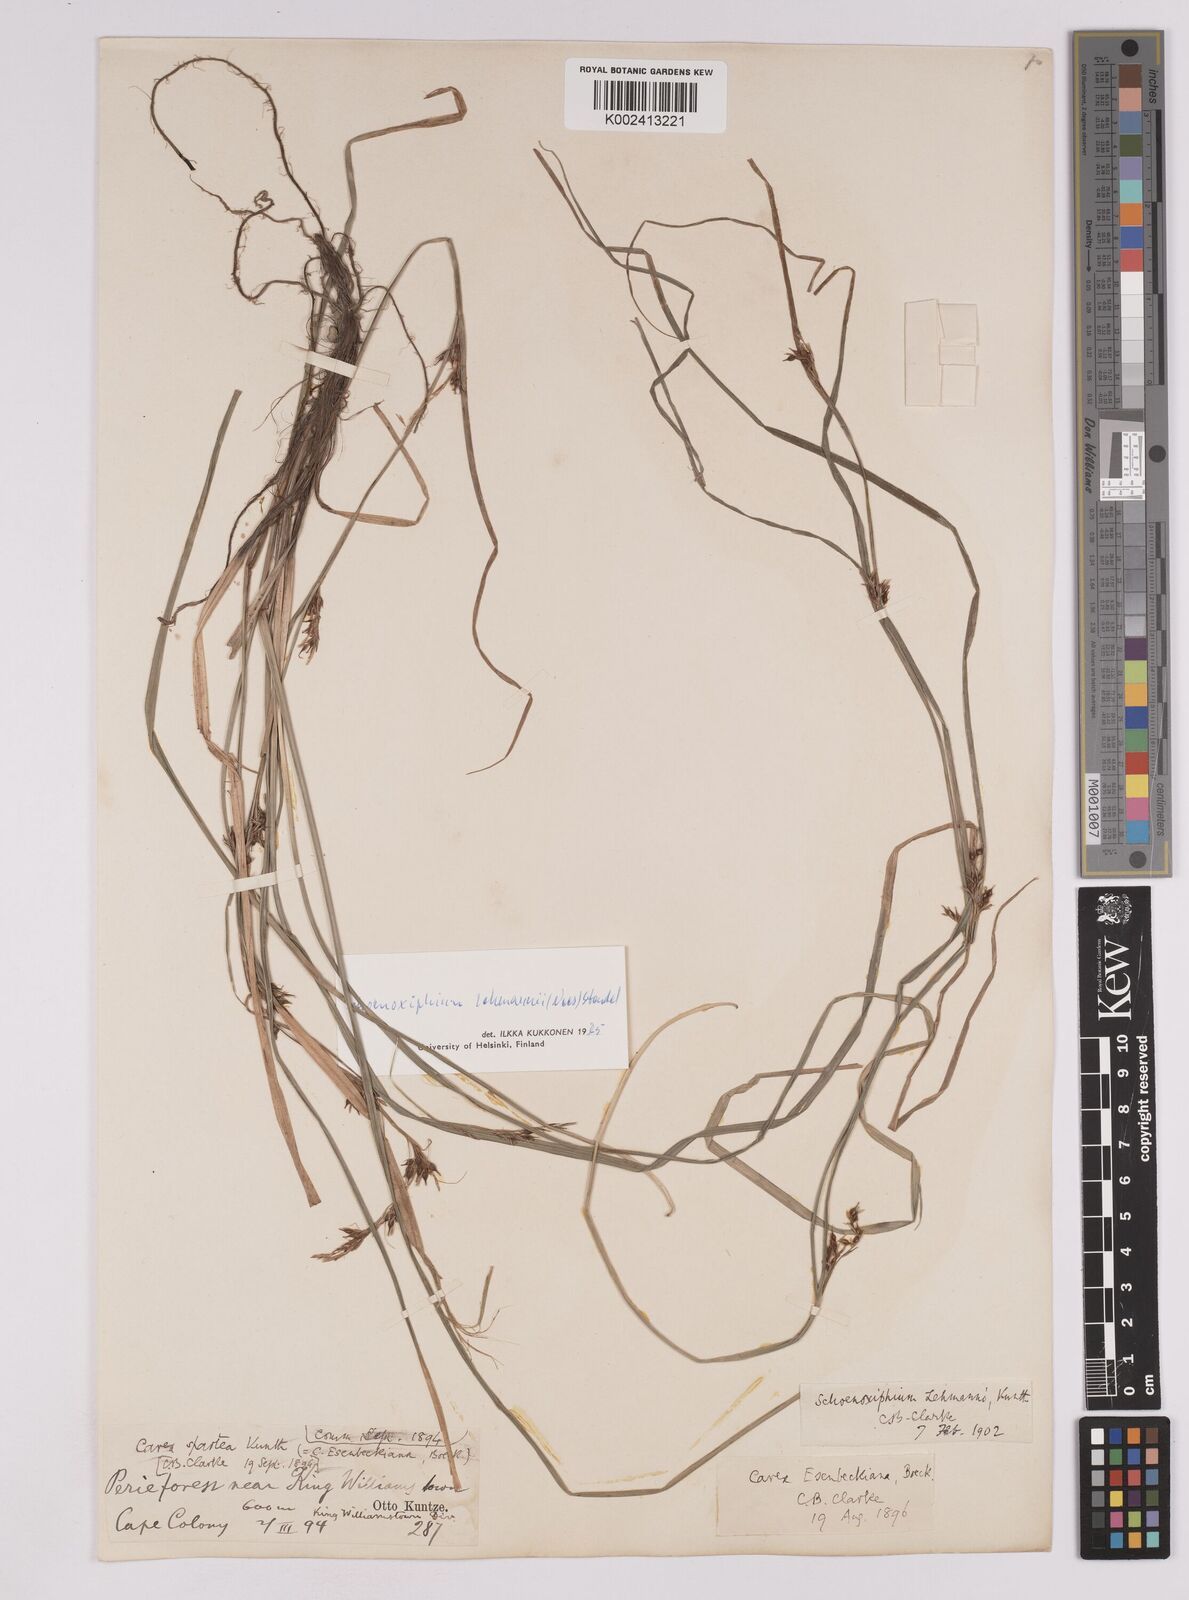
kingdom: Plantae
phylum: Tracheophyta
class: Liliopsida
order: Poales
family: Cyperaceae
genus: Carex
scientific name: Carex uhligii
